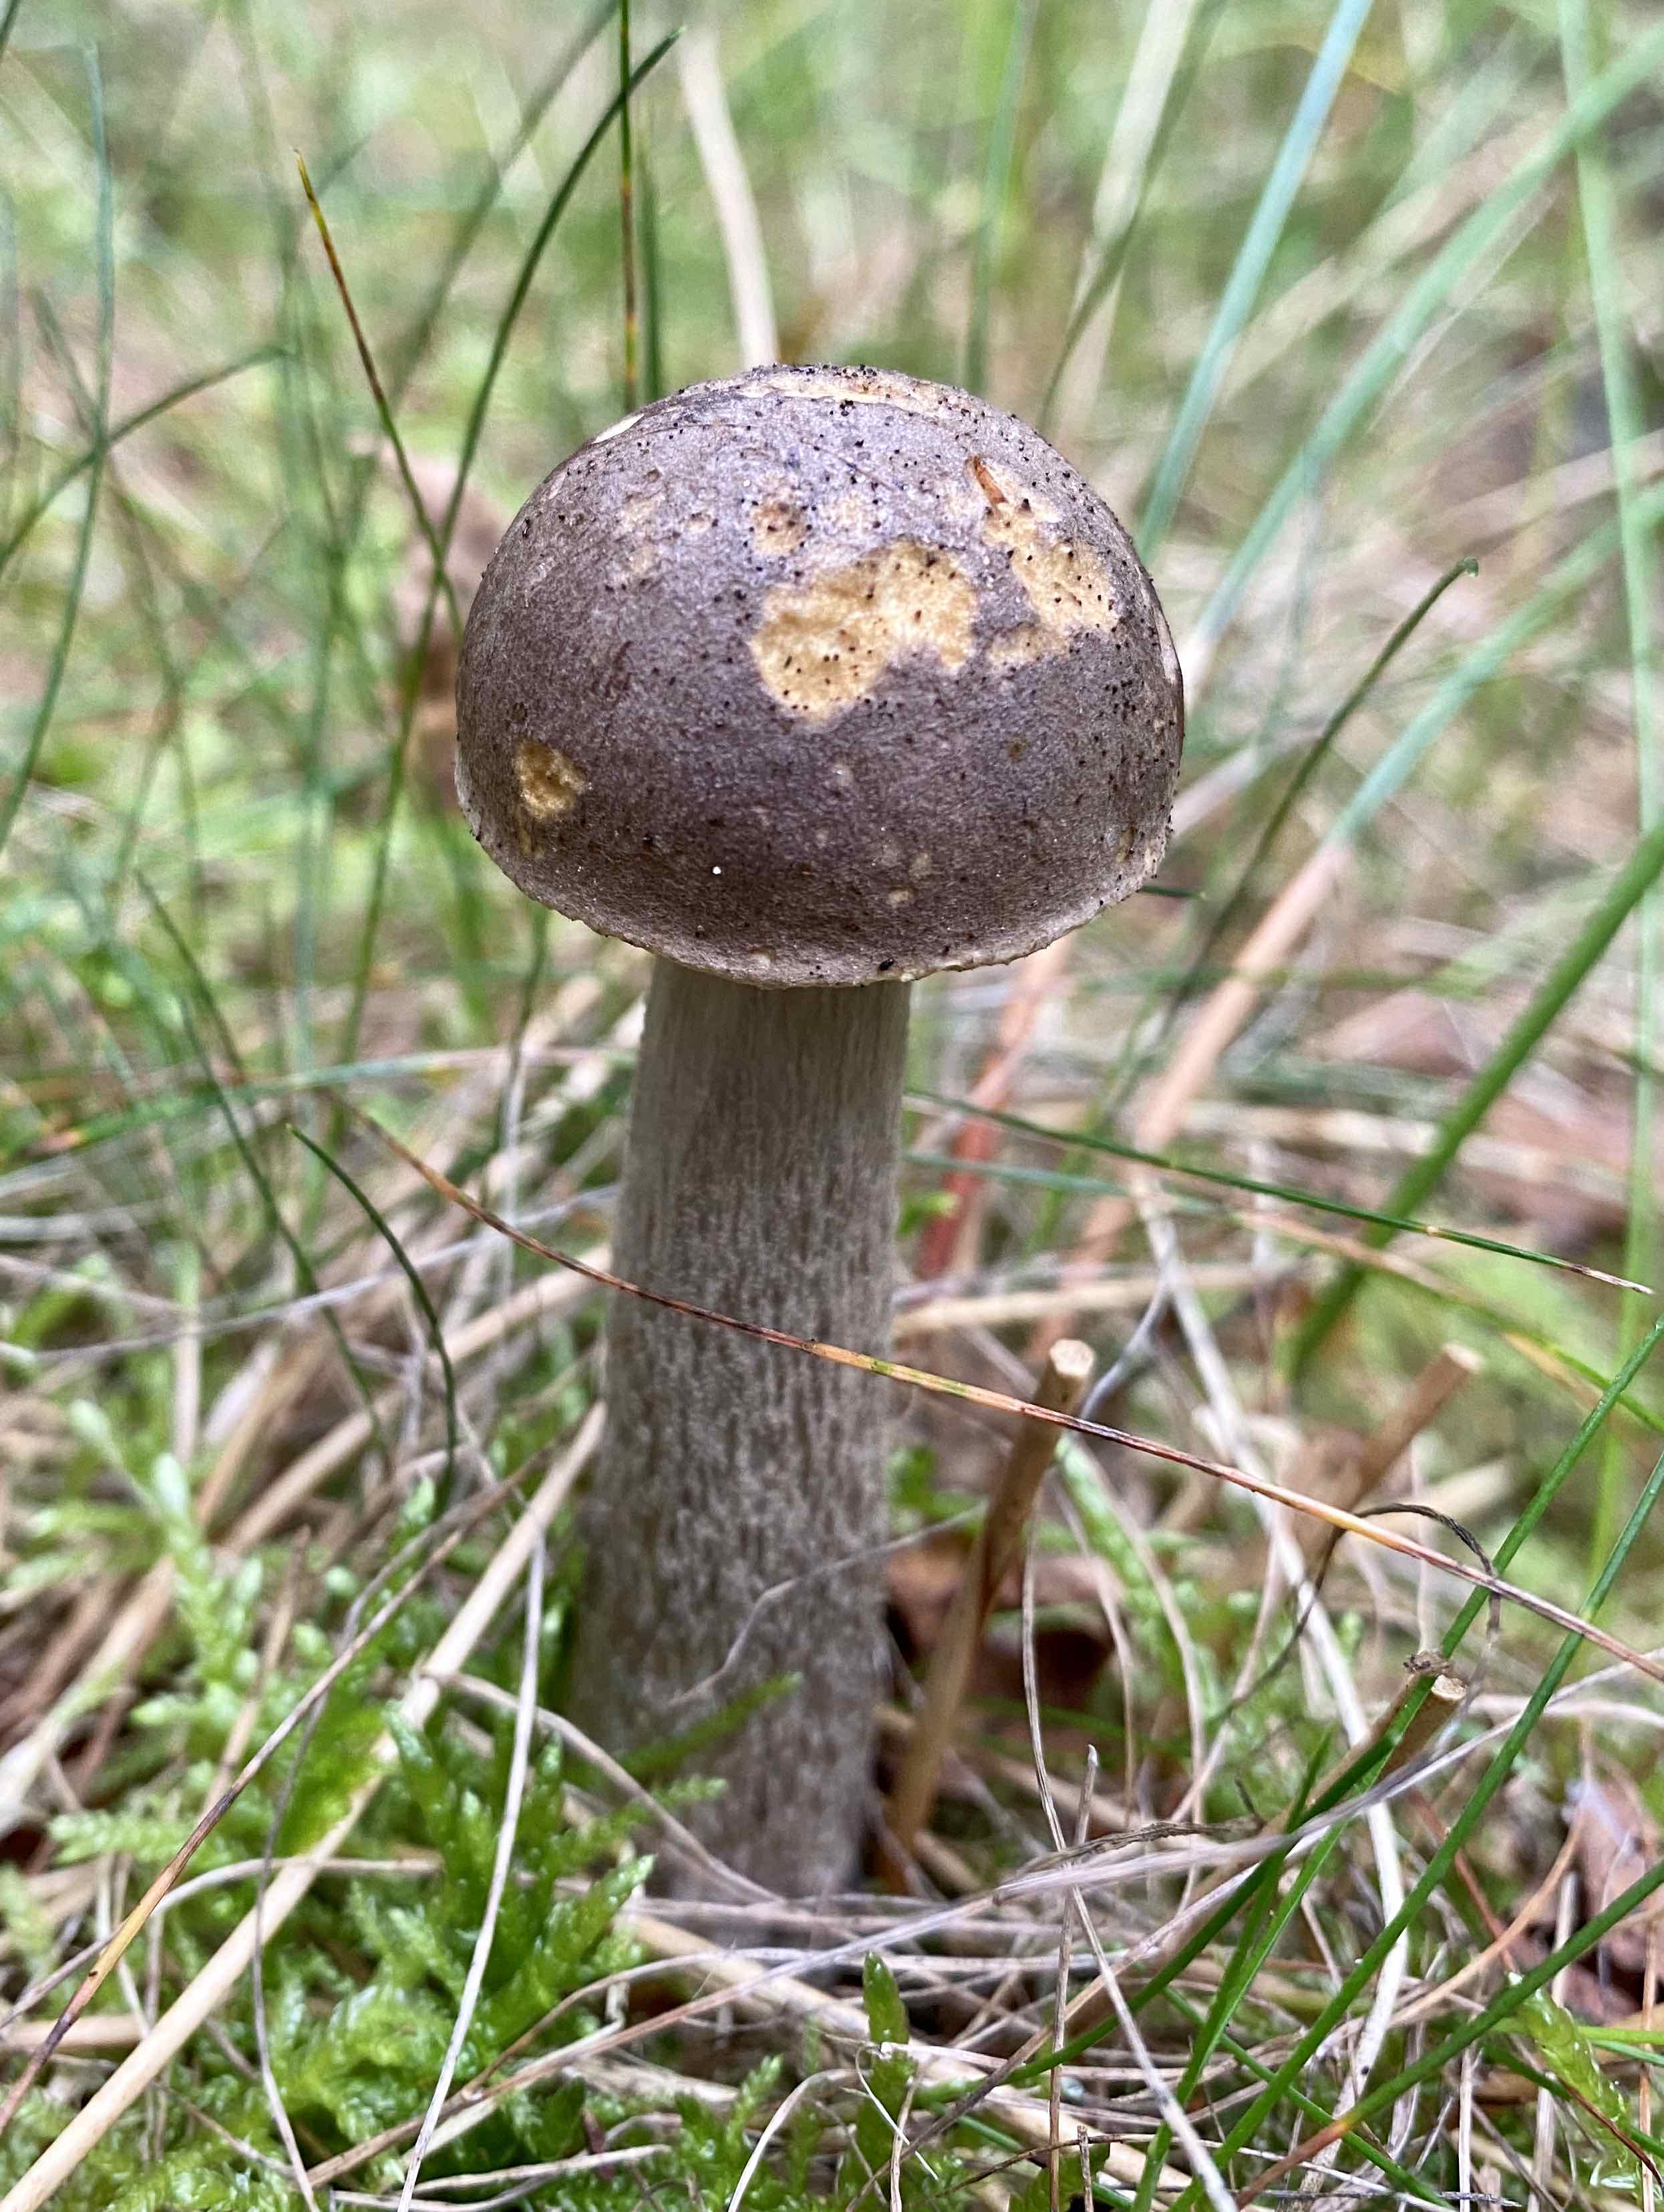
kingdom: Fungi
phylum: Basidiomycota
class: Agaricomycetes
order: Boletales
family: Boletaceae
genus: Leccinum
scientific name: Leccinum
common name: skælrørhat
